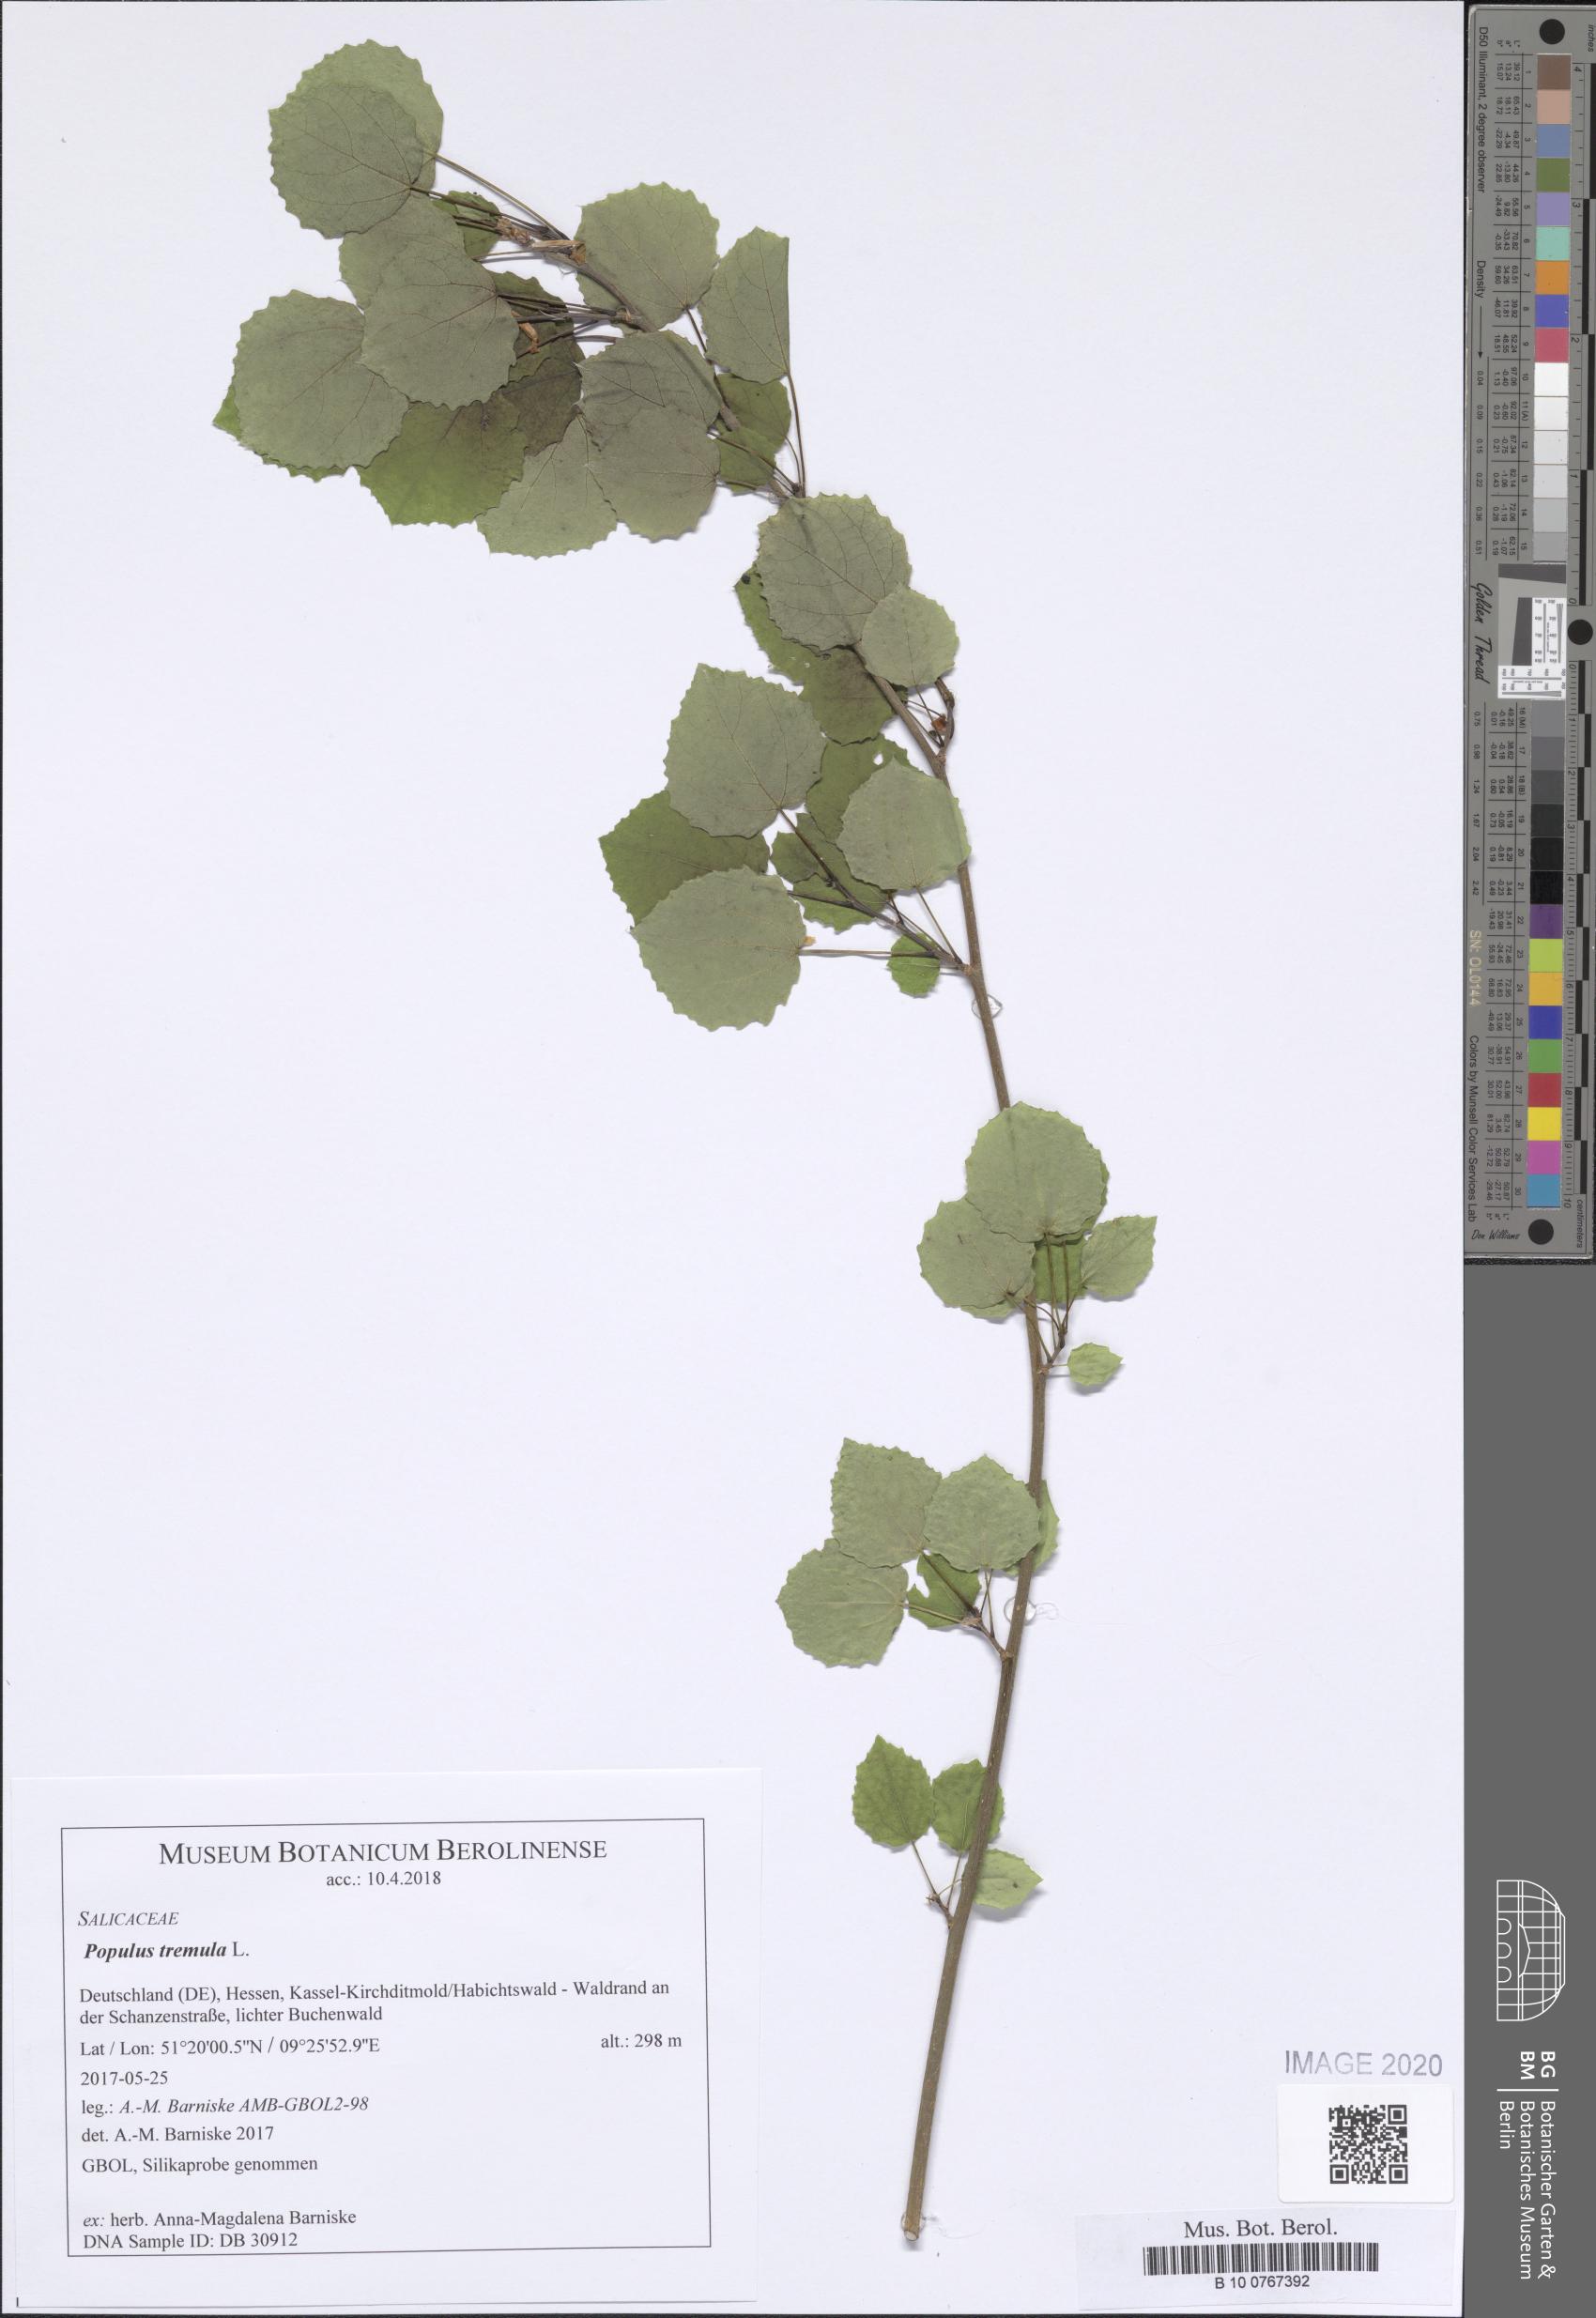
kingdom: Plantae
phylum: Tracheophyta
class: Magnoliopsida
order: Malpighiales
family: Salicaceae
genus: Populus
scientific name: Populus tremula
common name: European aspen
